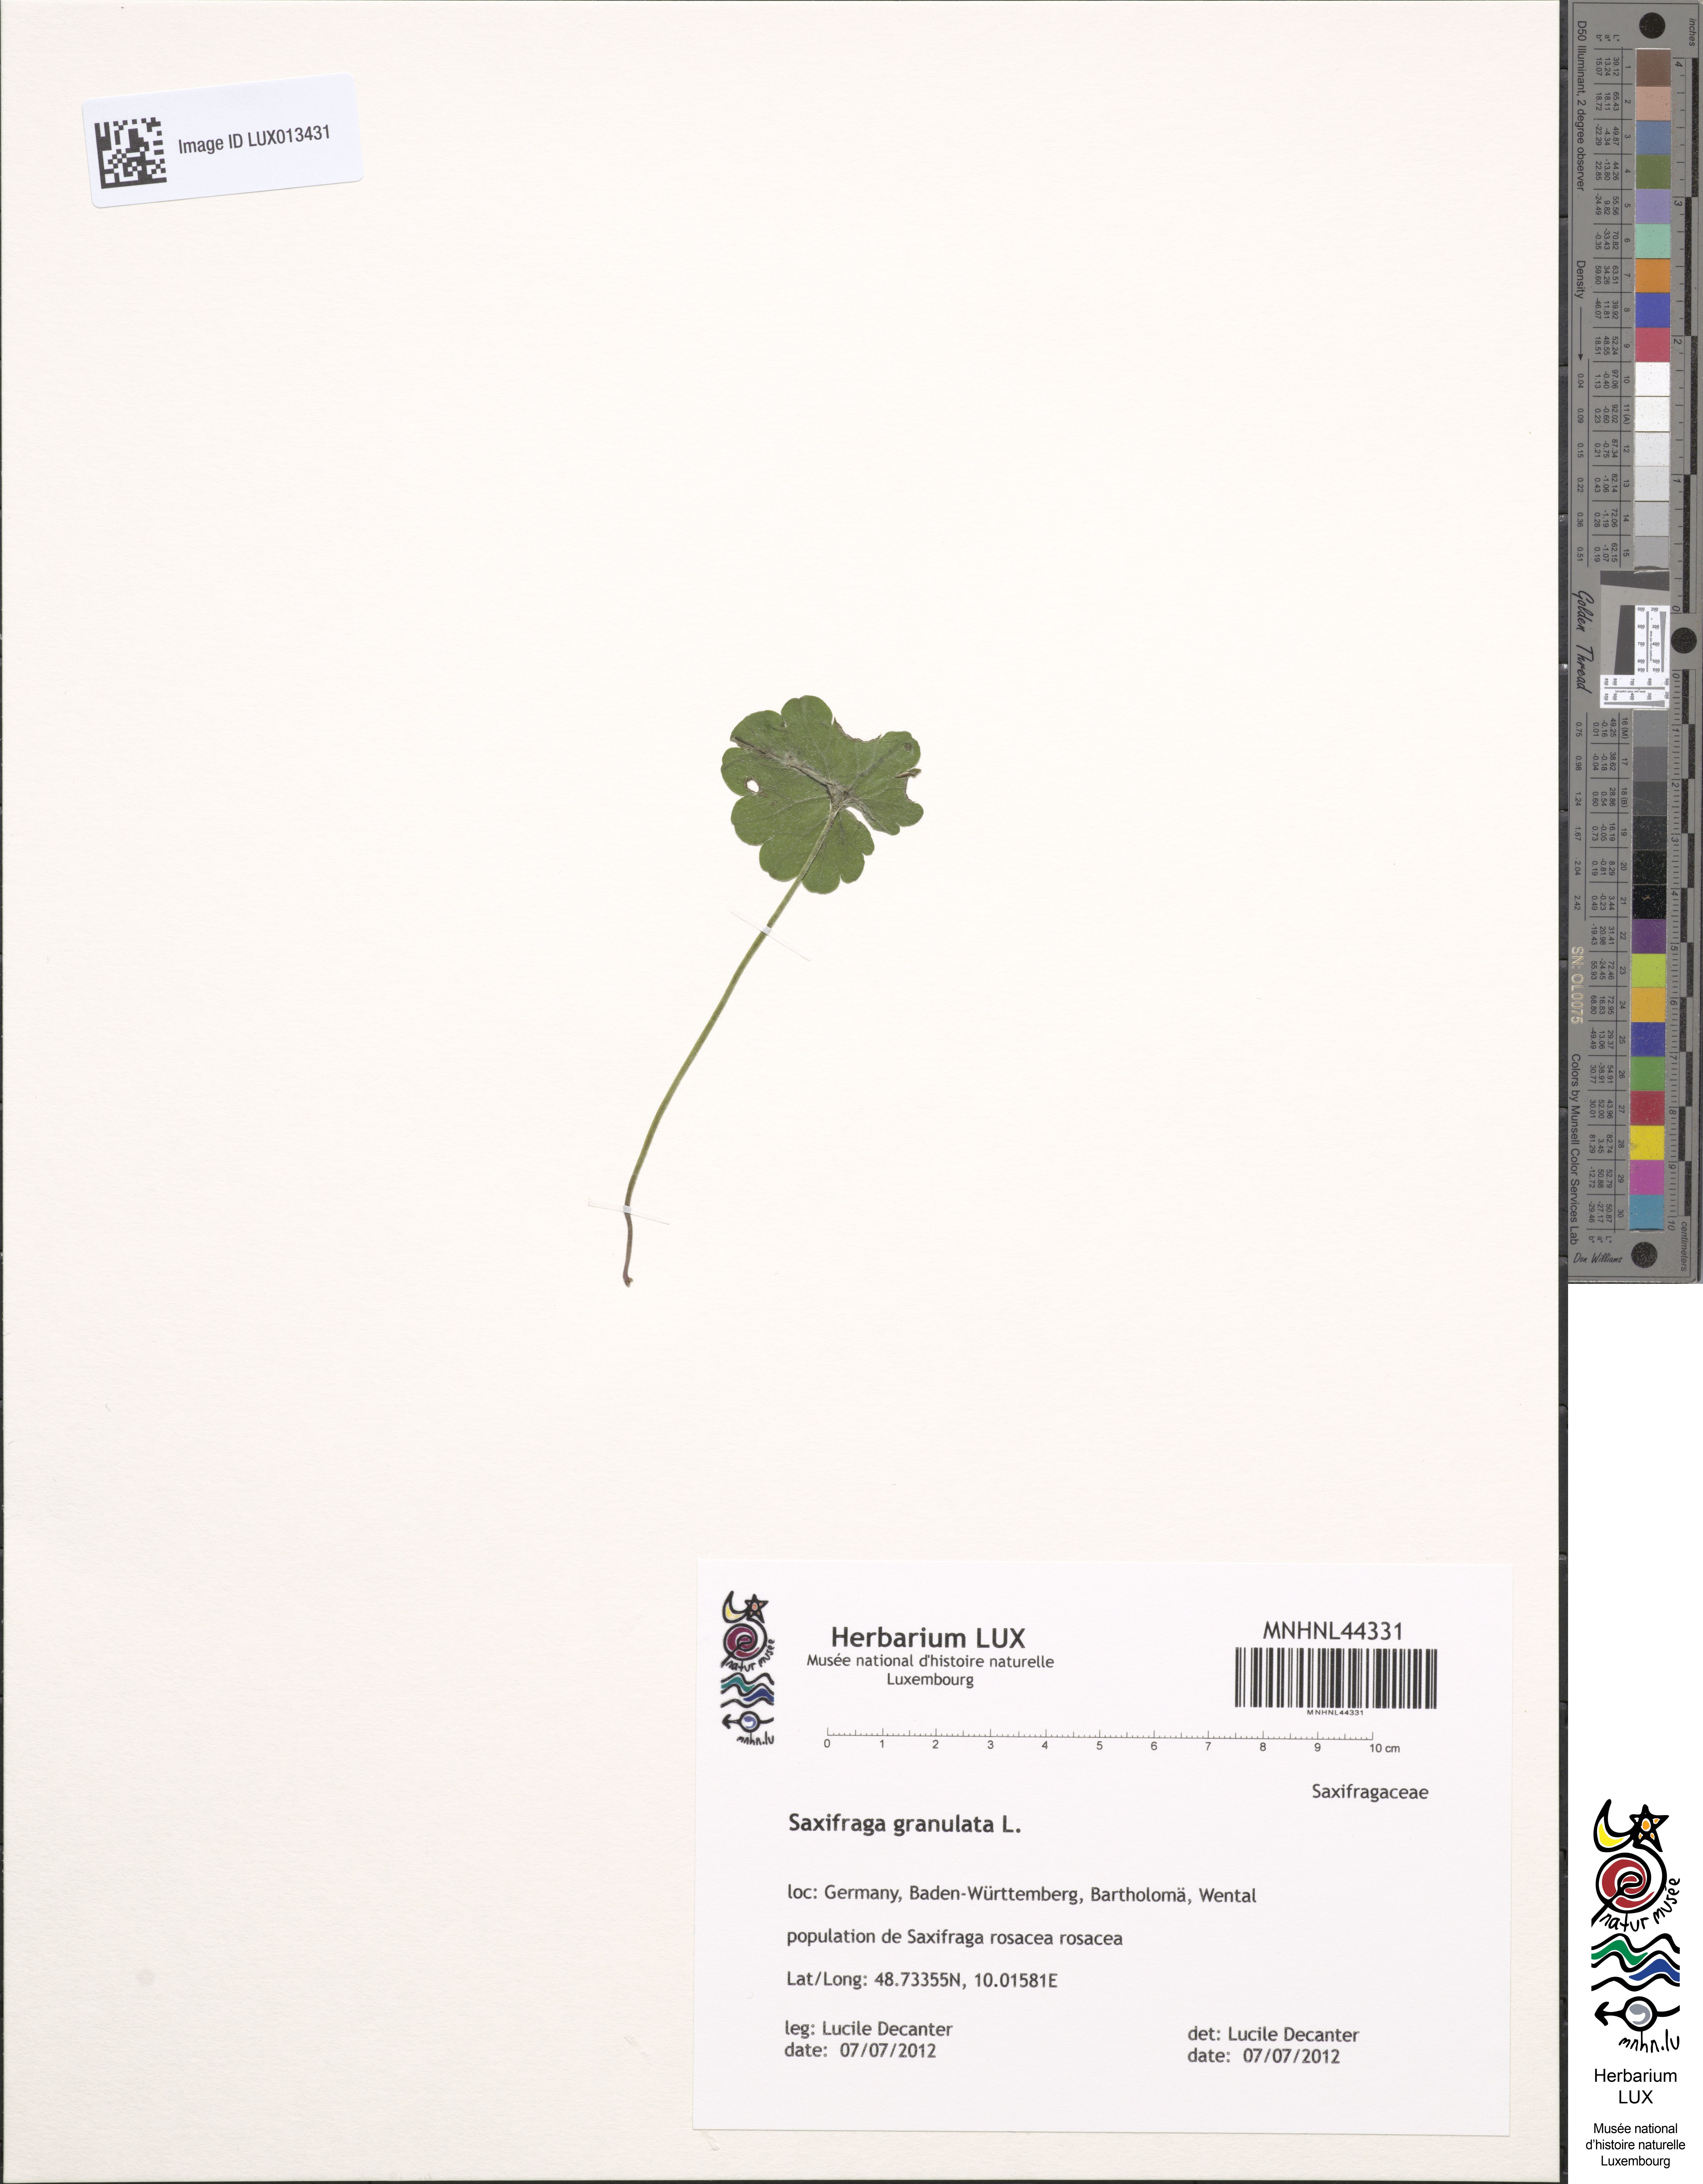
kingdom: Plantae
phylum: Tracheophyta
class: Magnoliopsida
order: Saxifragales
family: Saxifragaceae
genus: Saxifraga
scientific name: Saxifraga granulata
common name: Meadow saxifrage
